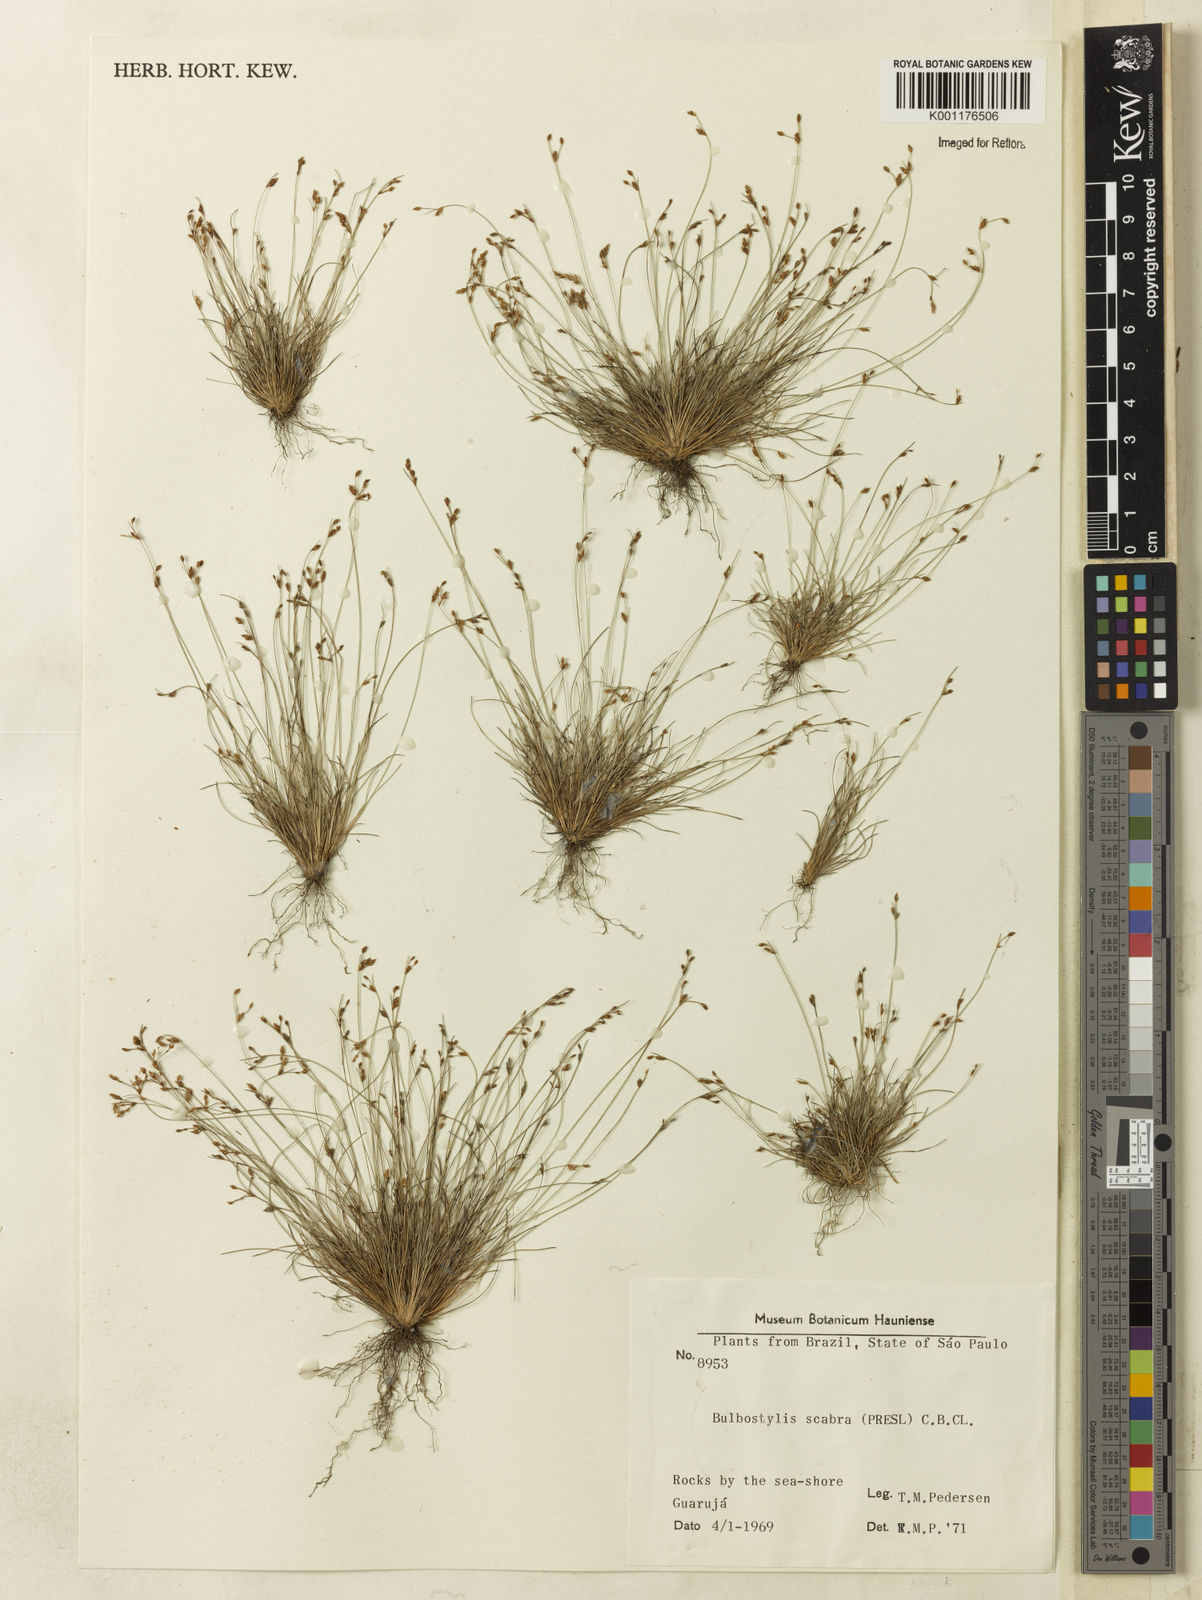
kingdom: Plantae
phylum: Tracheophyta
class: Liliopsida
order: Poales
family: Cyperaceae
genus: Bulbostylis
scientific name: Bulbostylis tenuifolia
